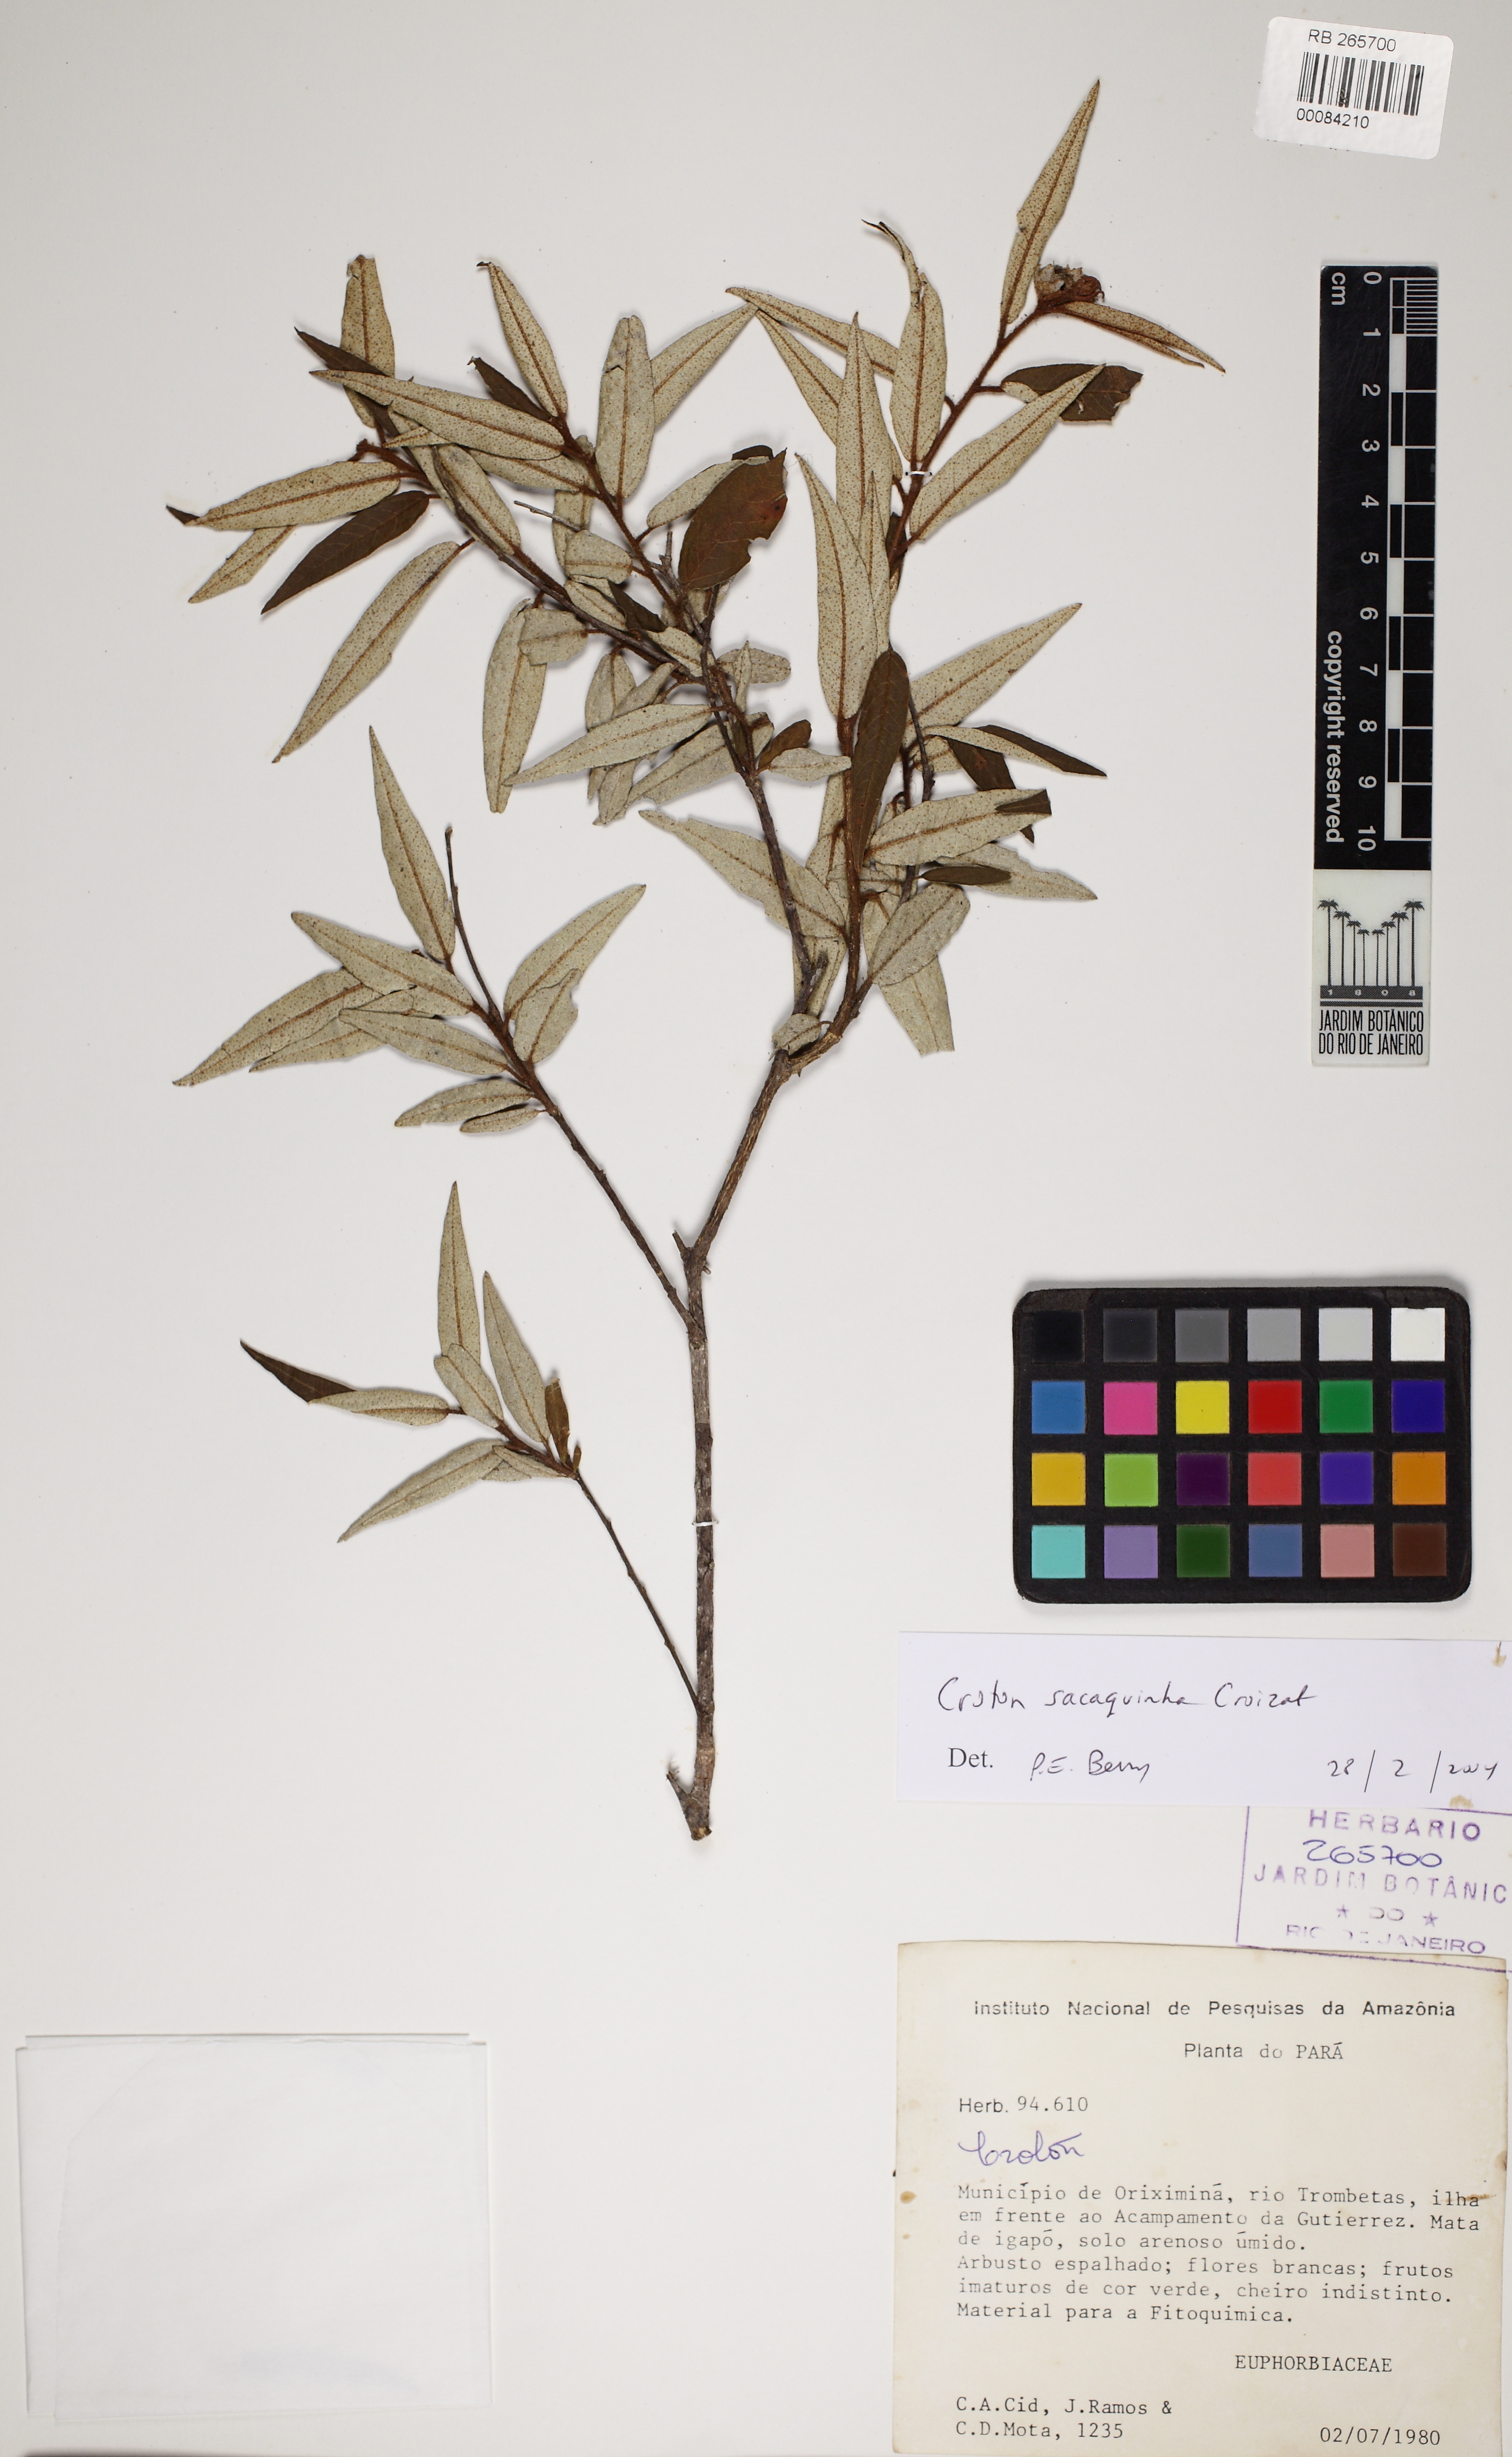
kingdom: Plantae
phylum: Tracheophyta
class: Magnoliopsida
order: Malpighiales
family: Euphorbiaceae
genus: Croton
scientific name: Croton sacaquinha
